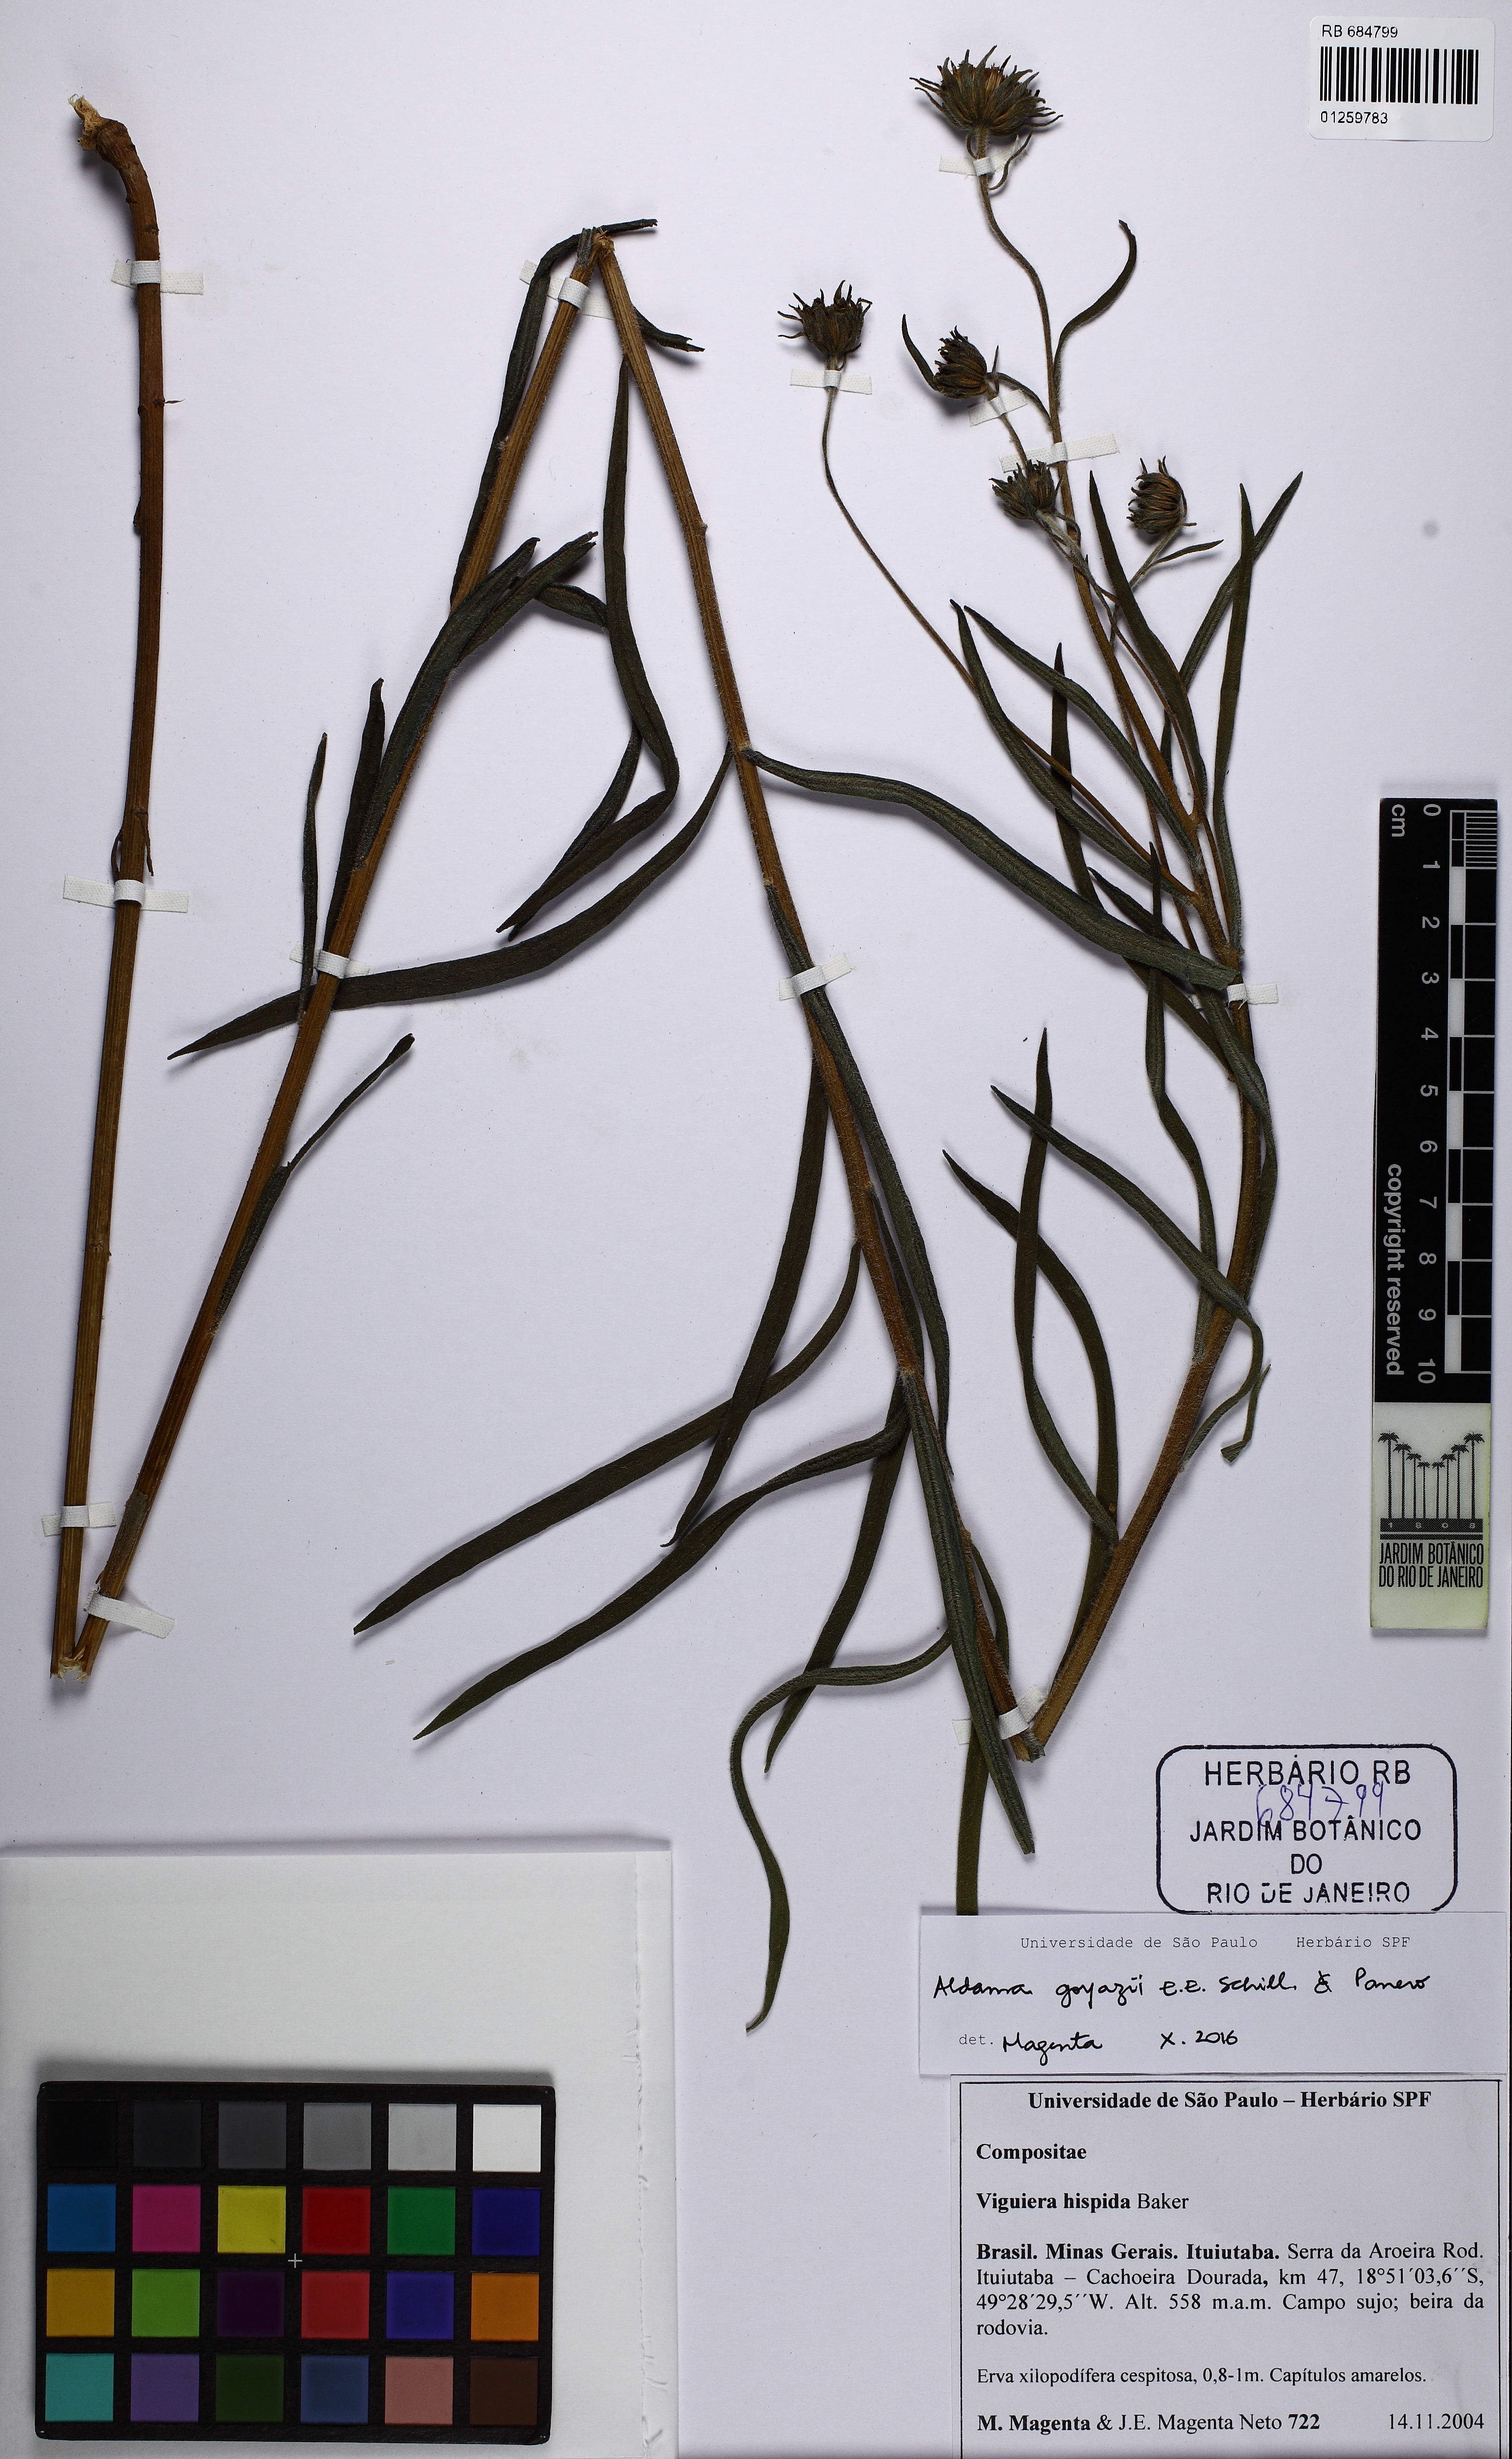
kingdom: Plantae
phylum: Tracheophyta
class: Magnoliopsida
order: Asterales
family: Asteraceae
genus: Aldama
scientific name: Aldama goyazii
